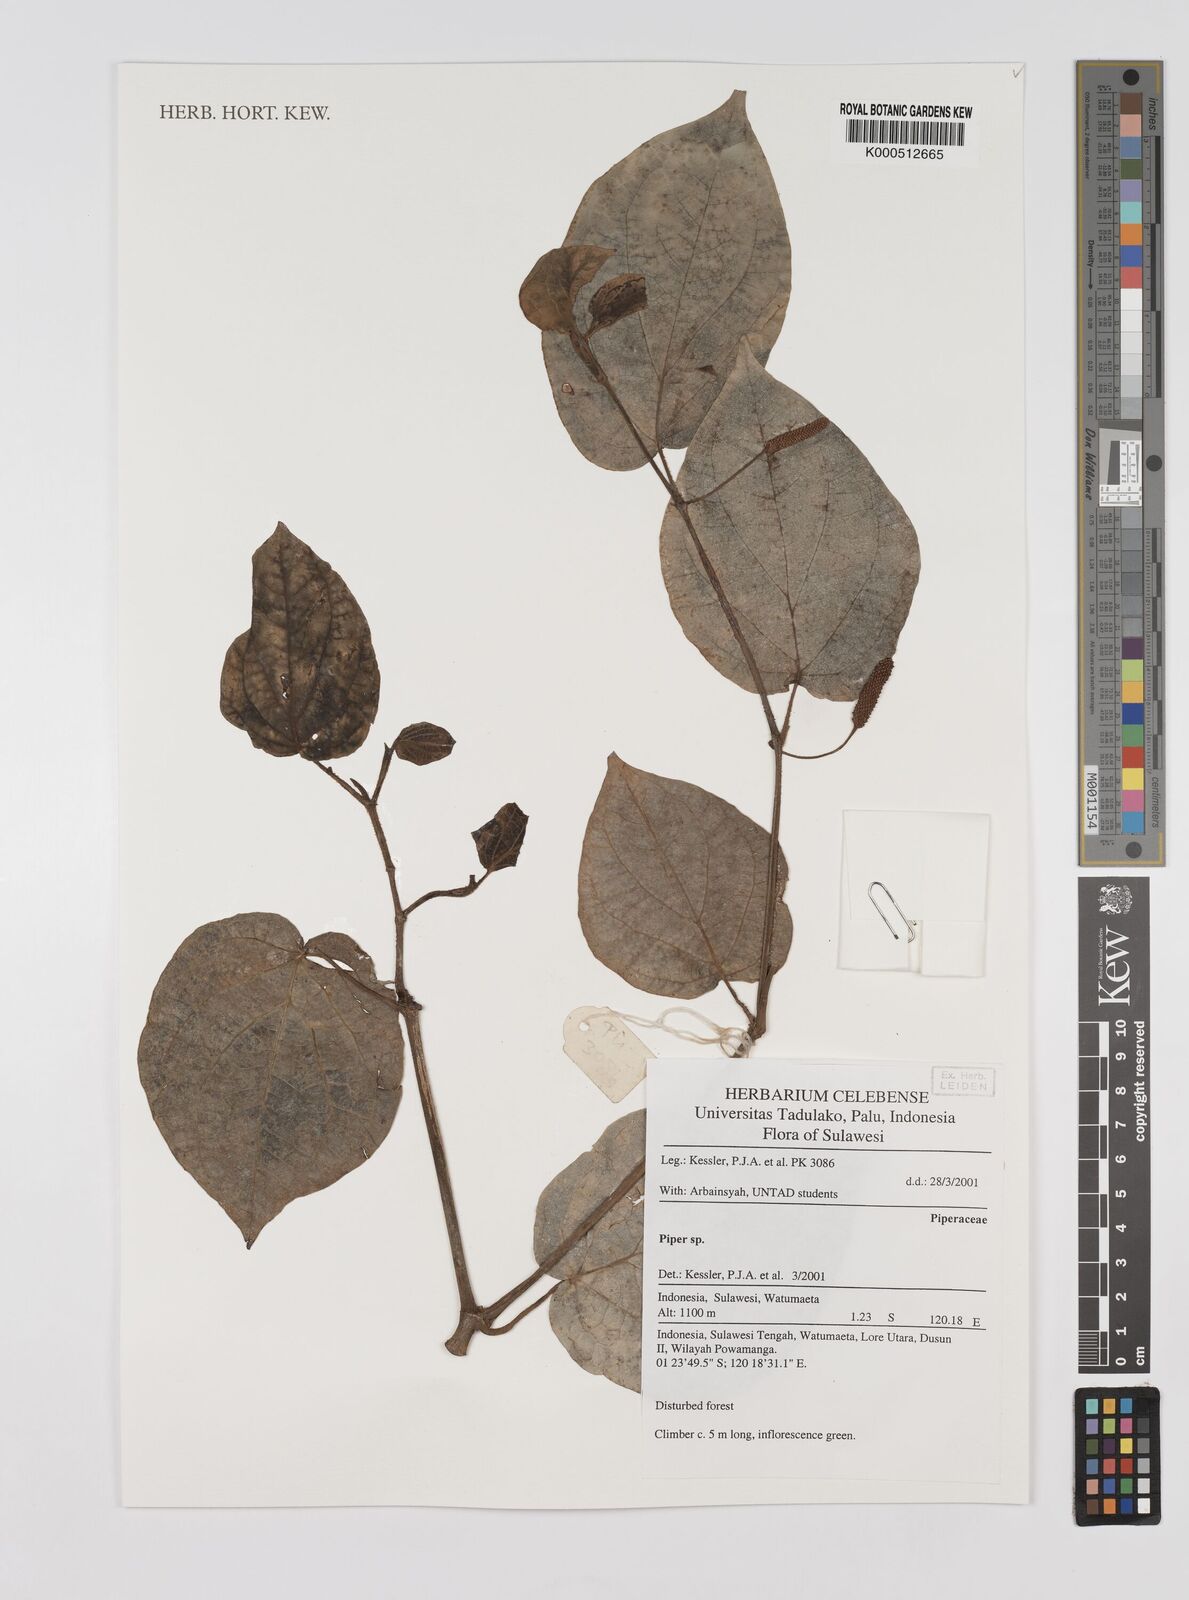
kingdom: Plantae
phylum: Tracheophyta
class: Magnoliopsida
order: Piperales
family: Piperaceae
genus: Piper
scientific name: Piper
